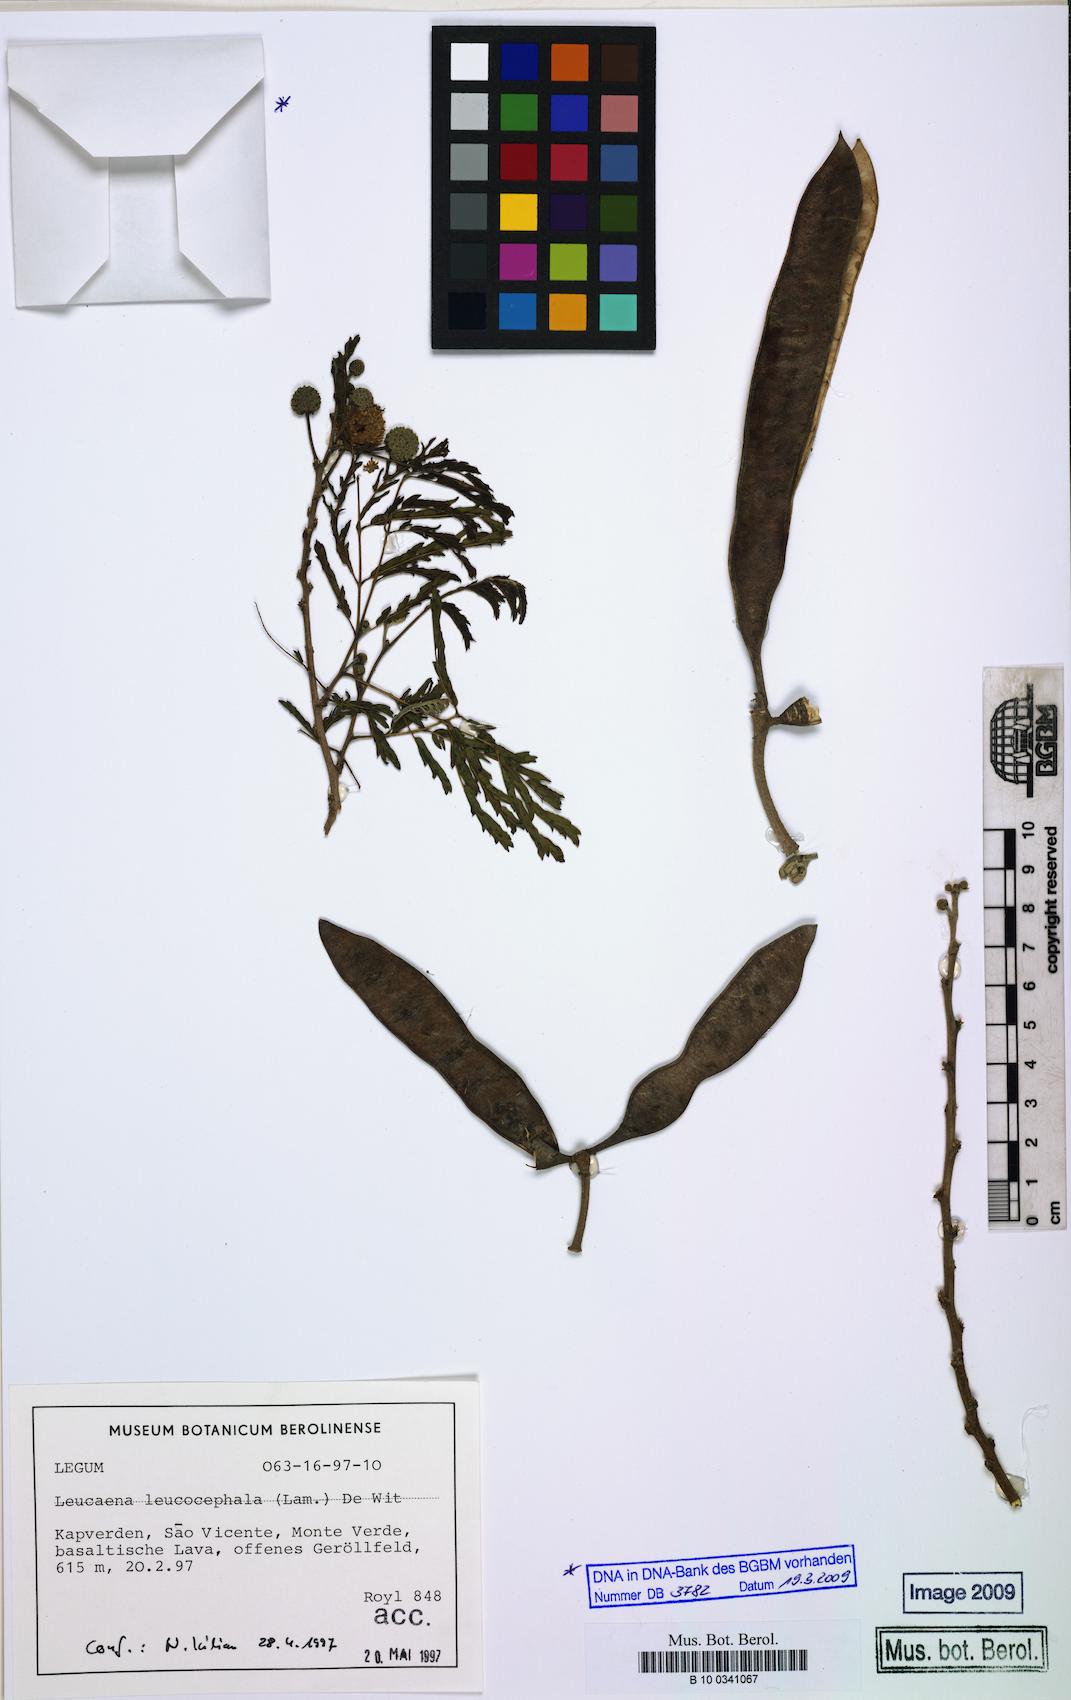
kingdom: Plantae
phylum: Tracheophyta
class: Magnoliopsida
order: Fabales
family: Fabaceae
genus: Leucaena
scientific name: Leucaena leucocephala
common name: White leadtree
